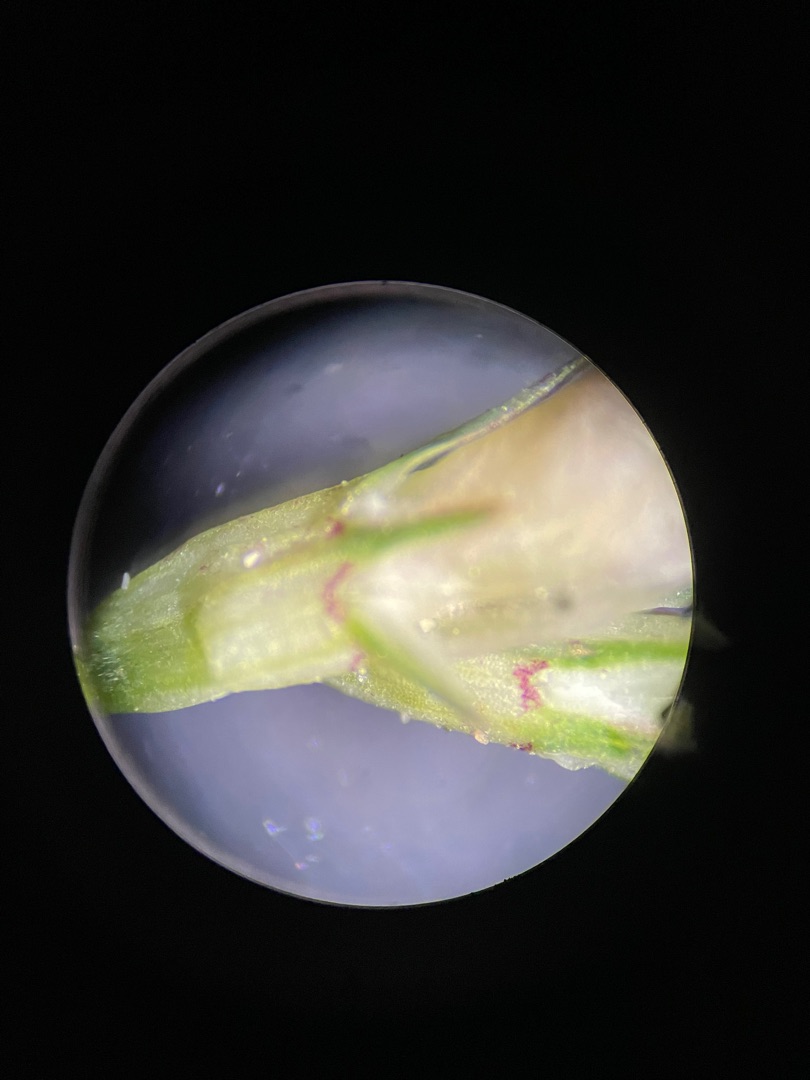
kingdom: Plantae
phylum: Tracheophyta
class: Magnoliopsida
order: Fabales
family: Fabaceae
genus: Trifolium
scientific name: Trifolium repens
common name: Hvid-kløver
